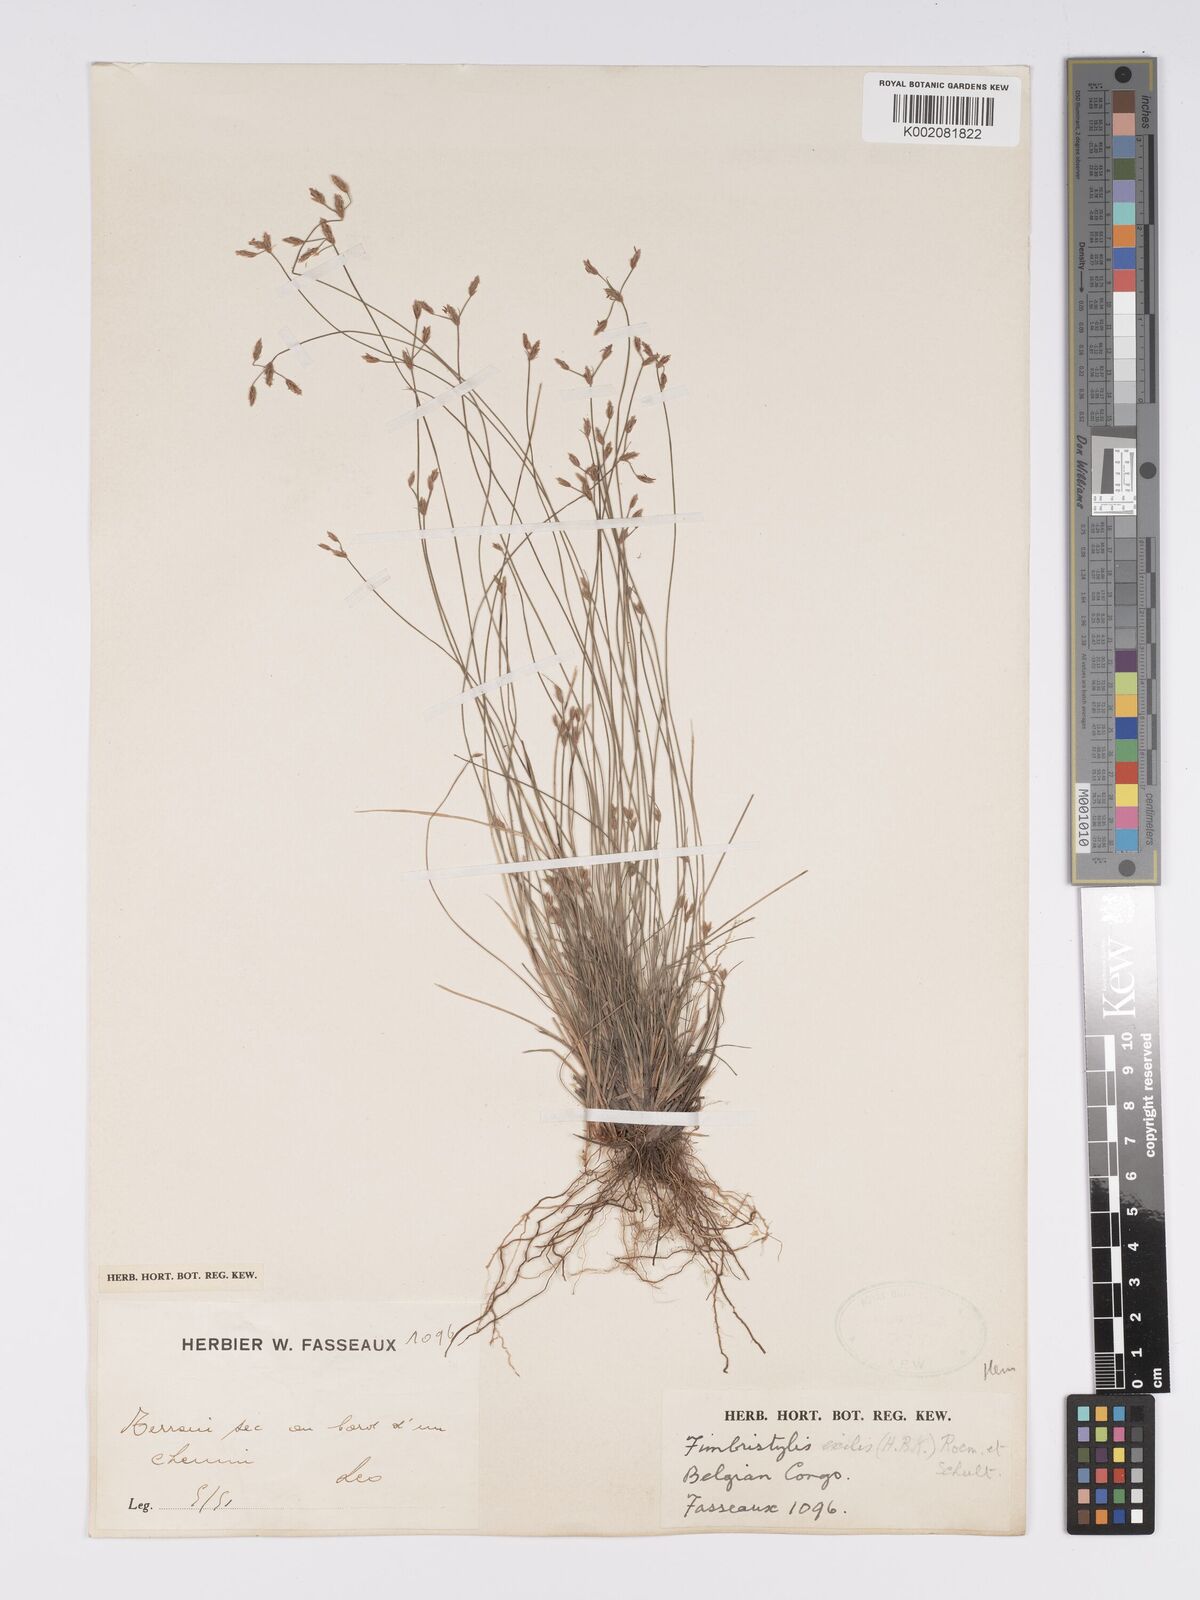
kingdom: Plantae
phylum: Tracheophyta
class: Liliopsida
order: Poales
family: Cyperaceae
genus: Bulbostylis
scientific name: Bulbostylis hispidula
